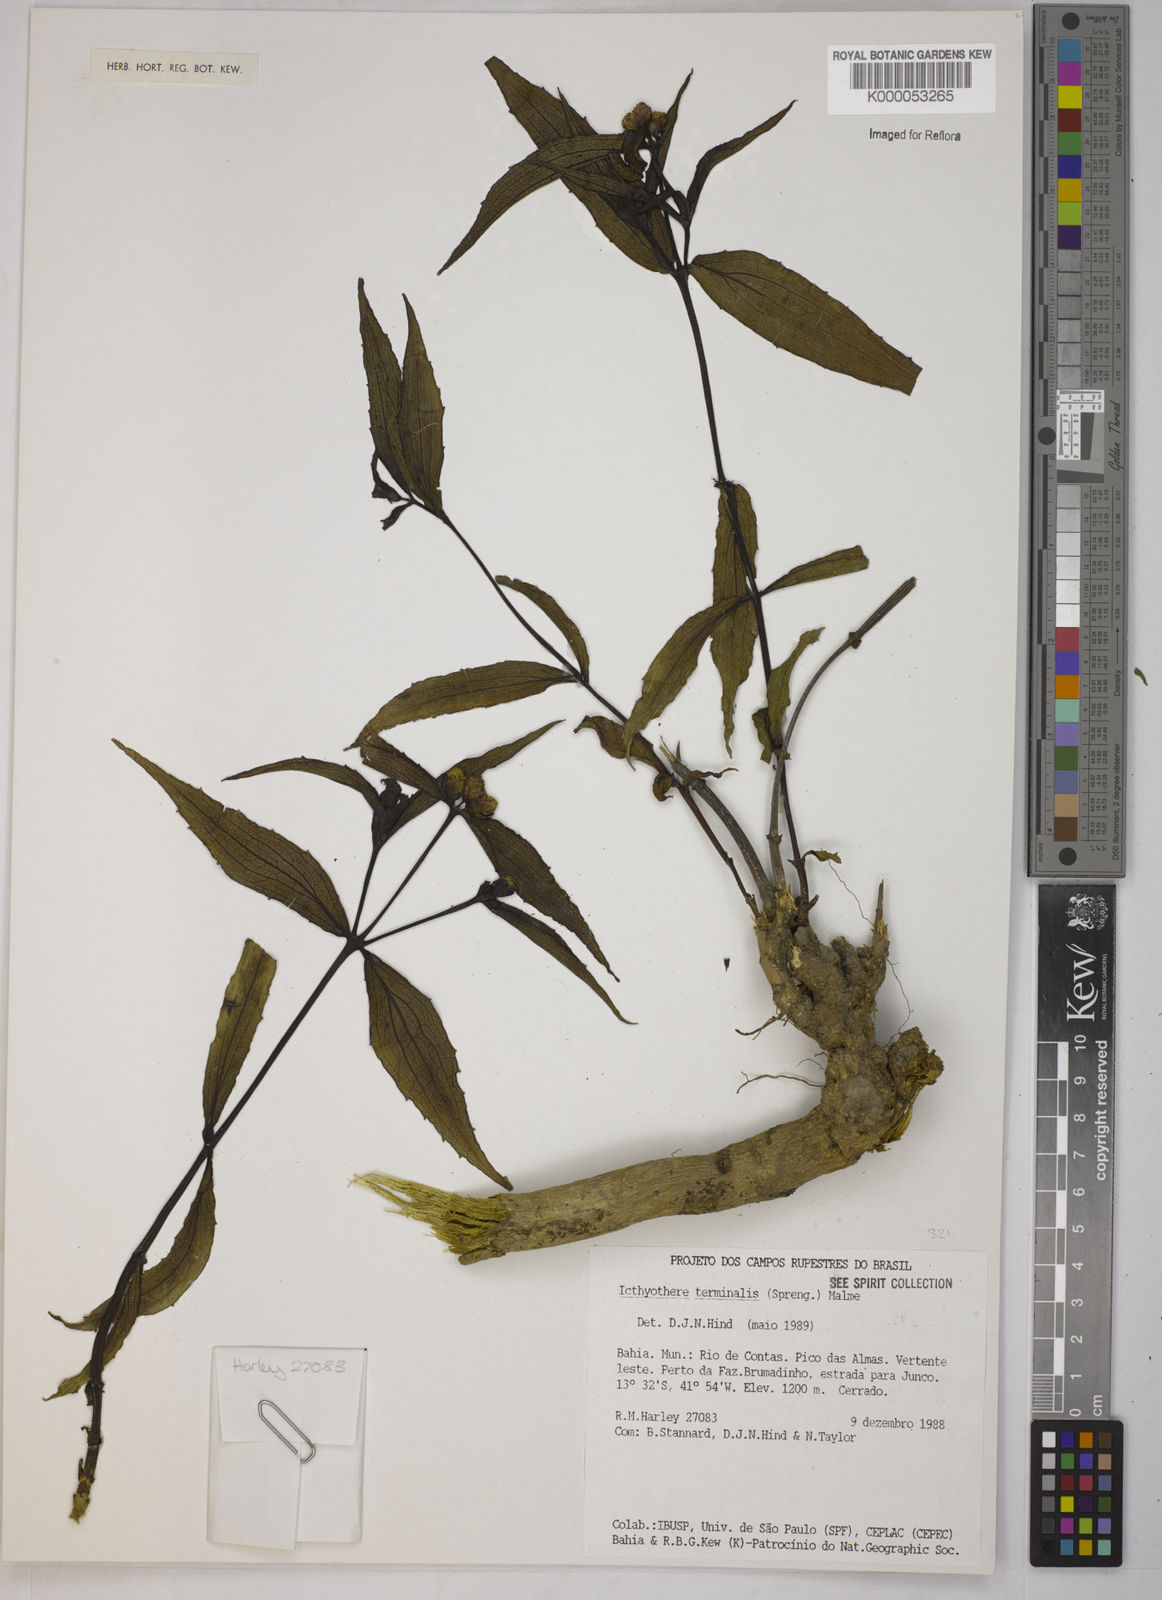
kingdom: Plantae
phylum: Tracheophyta
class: Magnoliopsida
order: Asterales
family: Asteraceae
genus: Ichthyothere
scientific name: Ichthyothere terminalis
